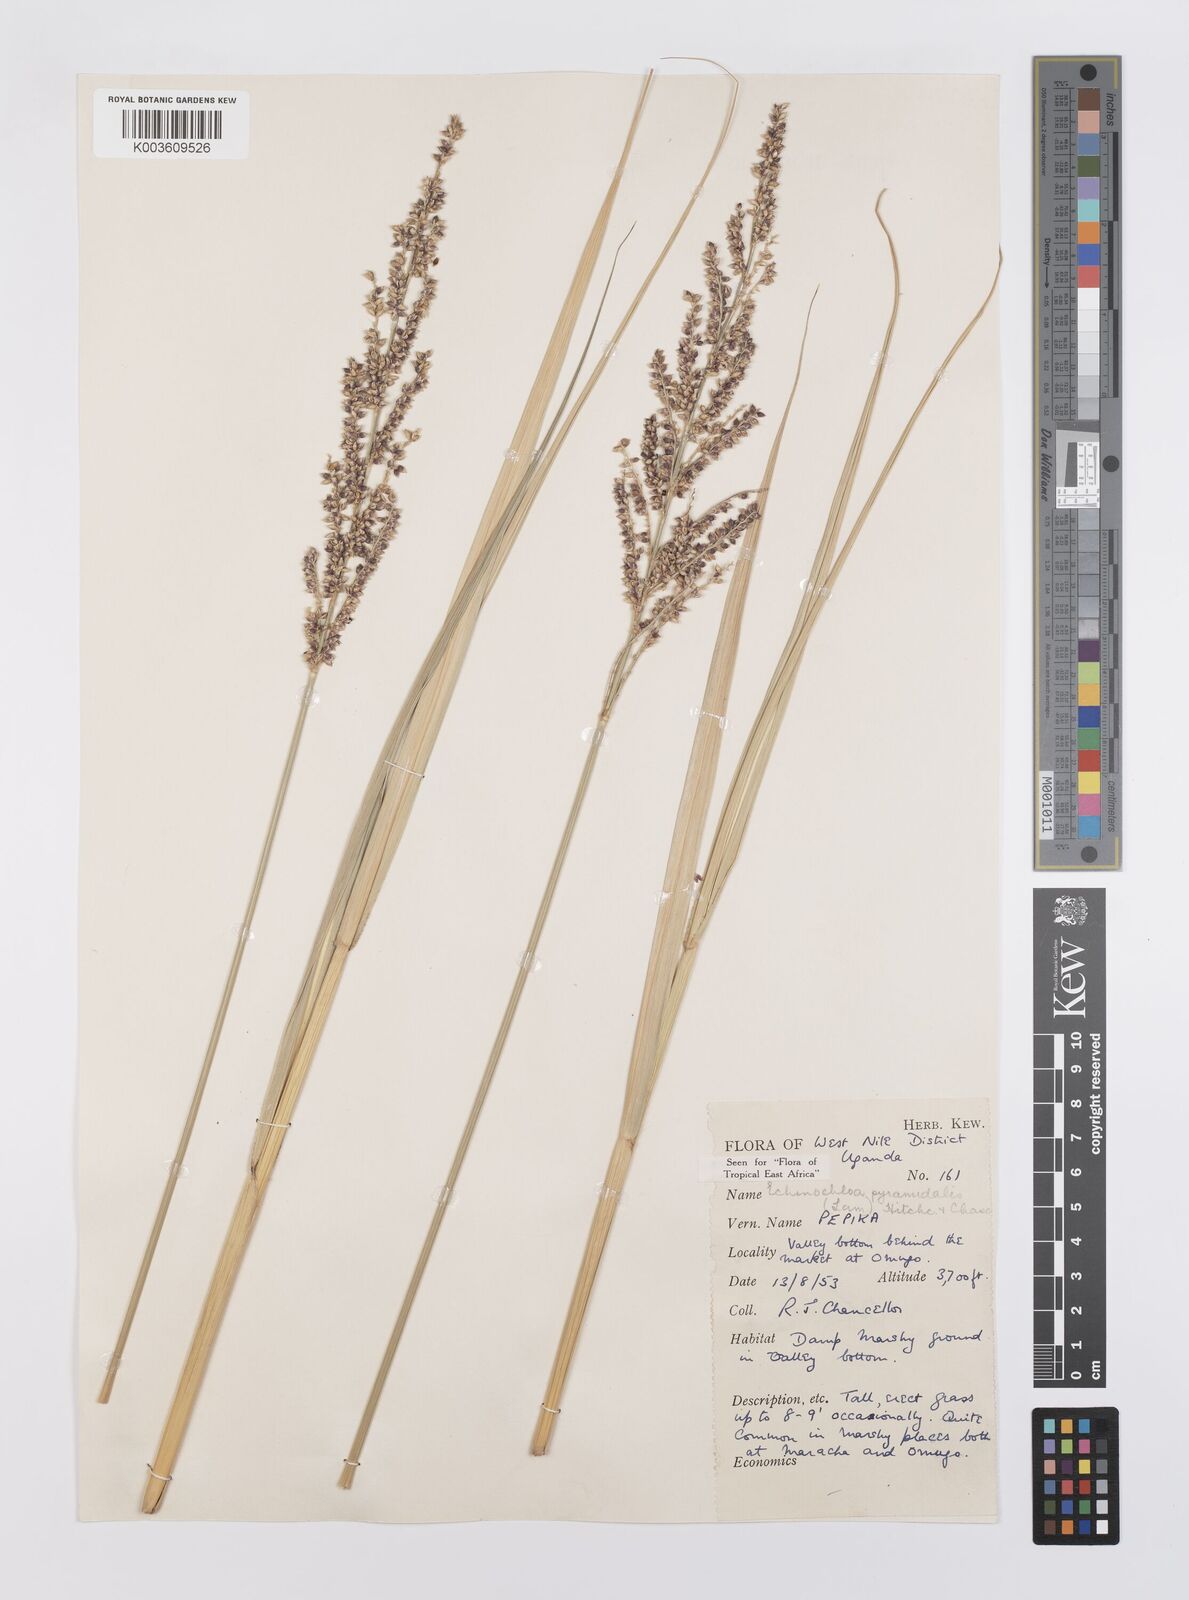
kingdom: Plantae
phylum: Tracheophyta
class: Liliopsida
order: Poales
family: Poaceae
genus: Echinochloa
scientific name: Echinochloa pyramidalis
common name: Antelope grass
